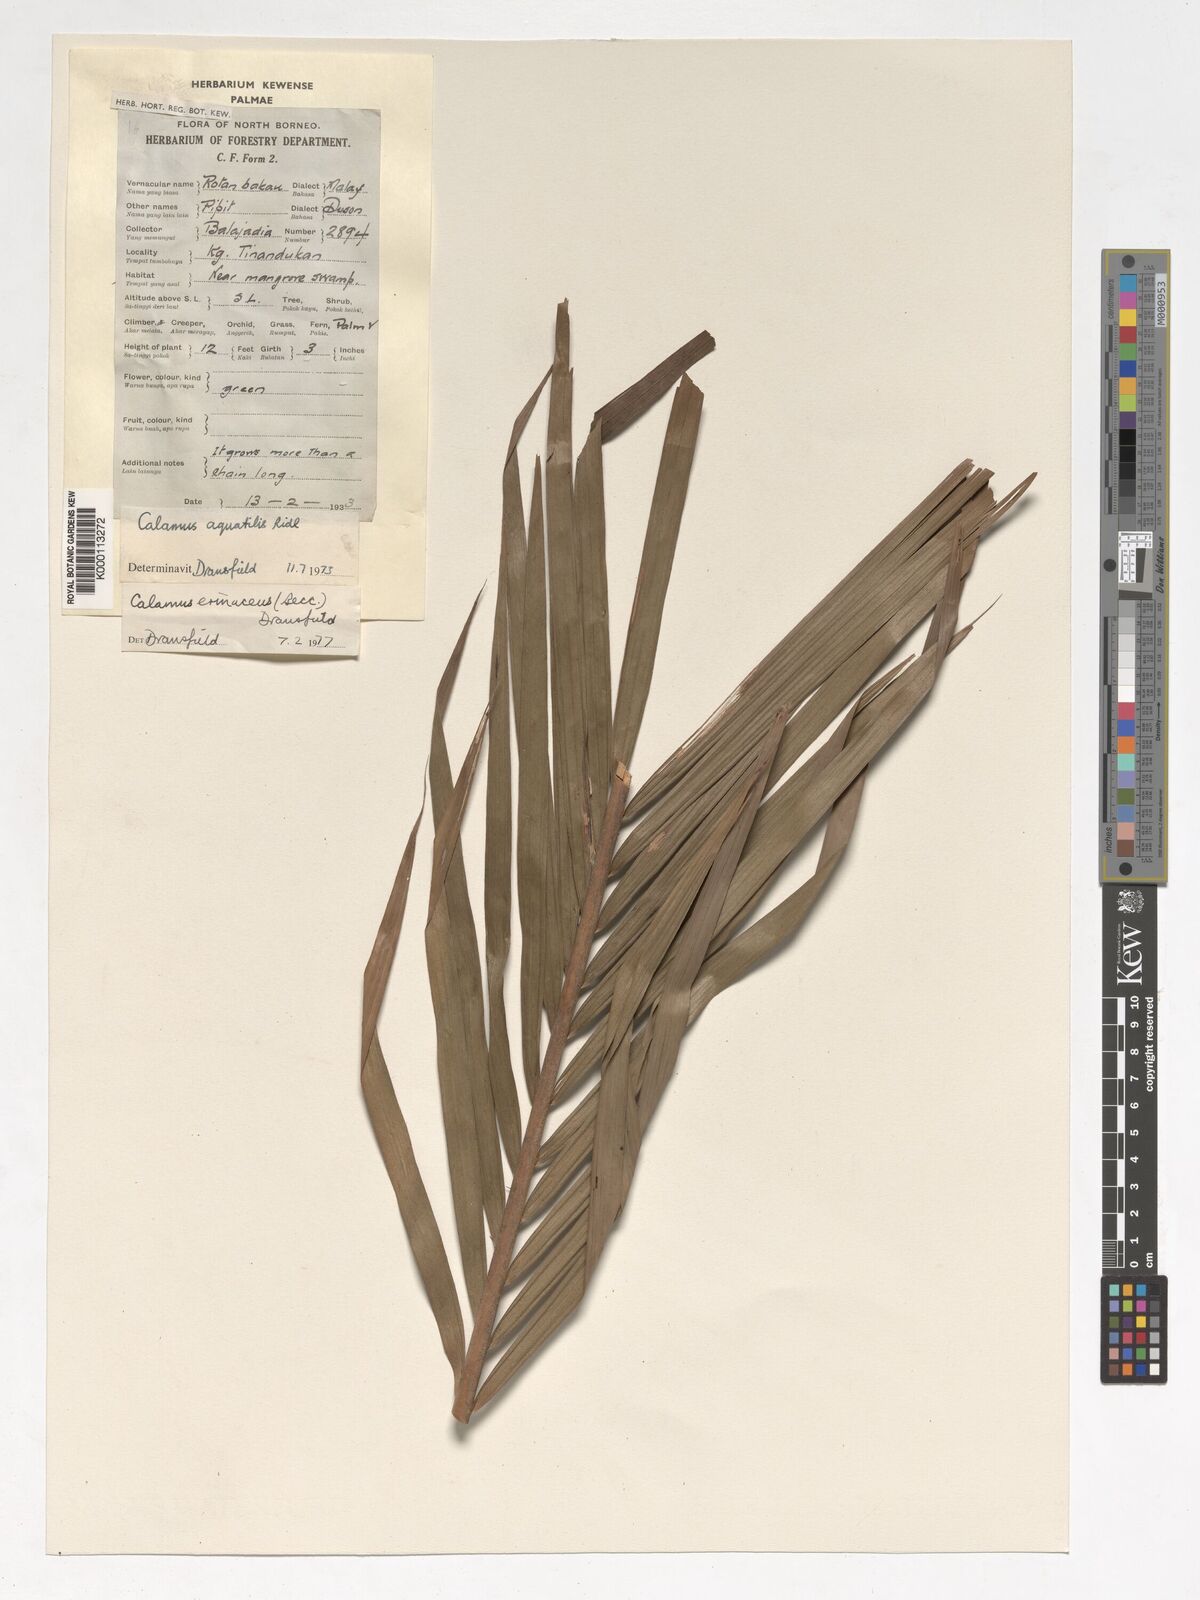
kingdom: Plantae
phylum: Tracheophyta
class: Liliopsida
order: Arecales
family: Arecaceae
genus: Calamus
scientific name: Calamus
